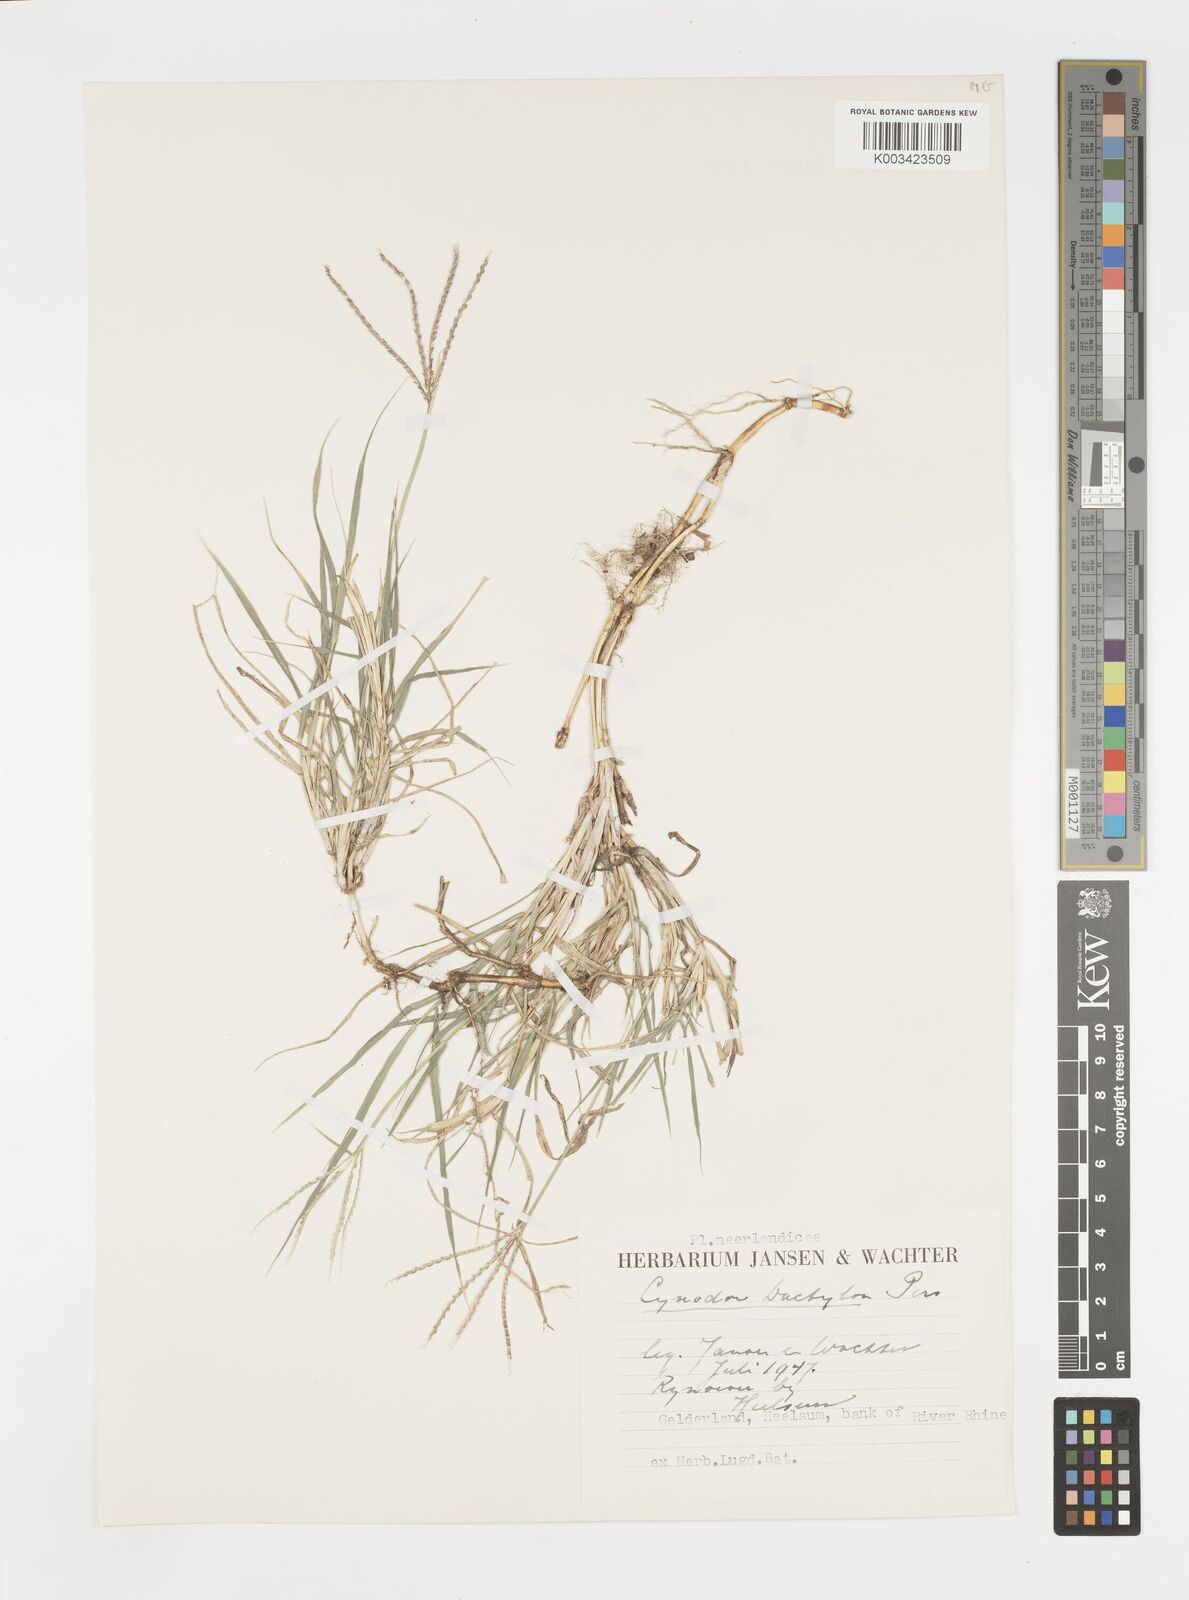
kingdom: Plantae
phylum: Tracheophyta
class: Liliopsida
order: Poales
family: Poaceae
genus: Cynodon
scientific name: Cynodon dactylon
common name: Bermuda grass
